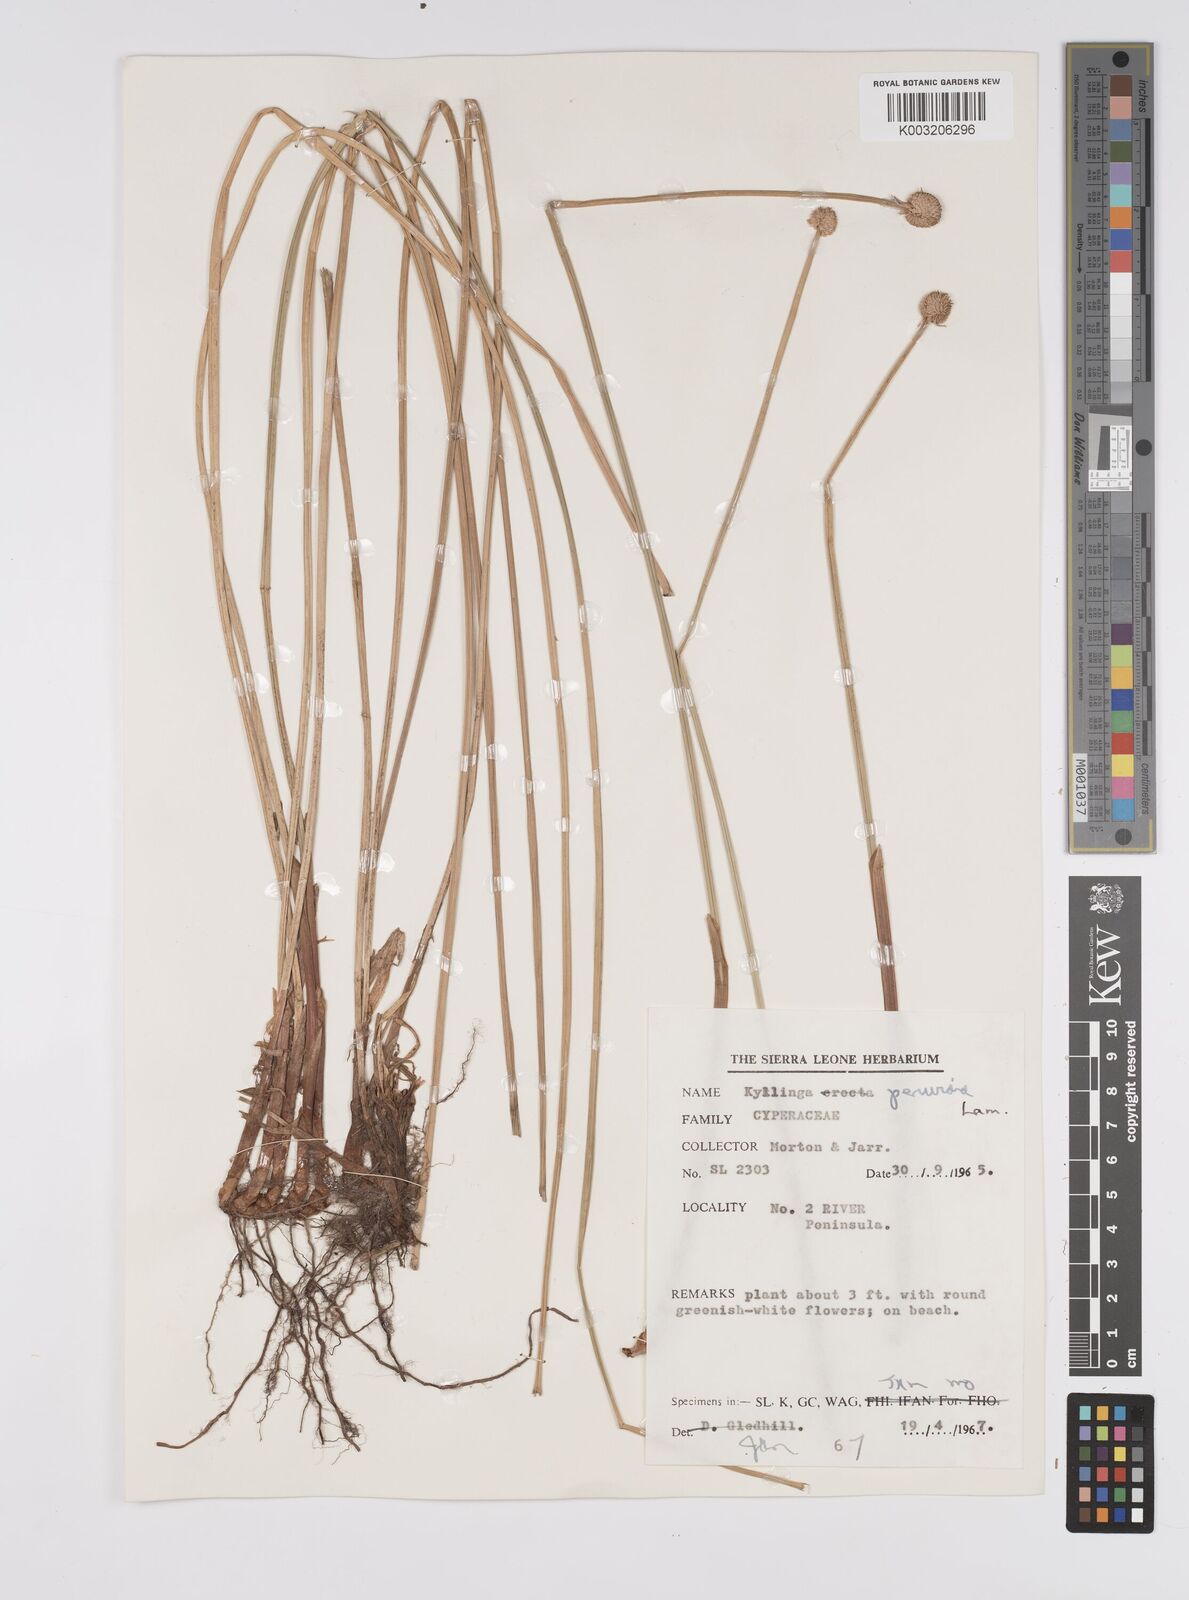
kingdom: Plantae
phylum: Tracheophyta
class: Liliopsida
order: Poales
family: Cyperaceae
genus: Cyperus
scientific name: Cyperus obtusatus
